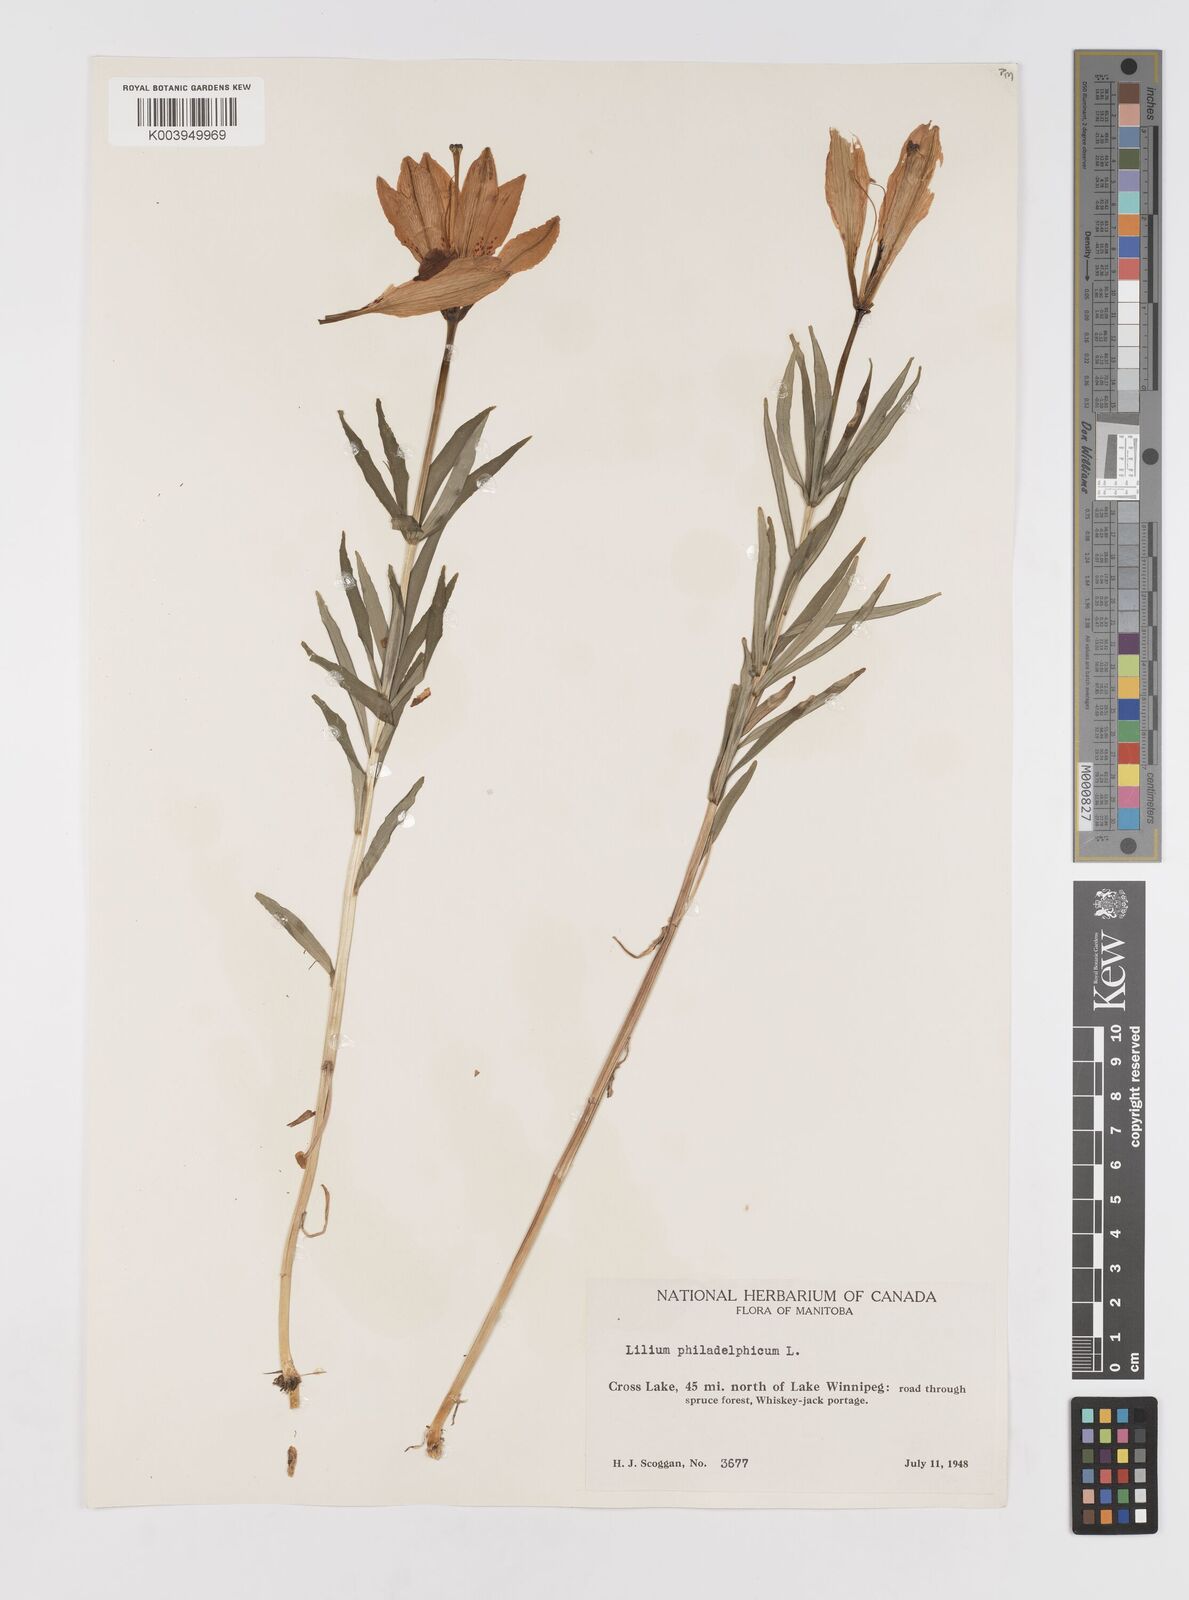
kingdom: Plantae
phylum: Tracheophyta
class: Liliopsida
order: Liliales
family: Liliaceae
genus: Lilium
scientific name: Lilium philadelphicum
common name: Red lily
